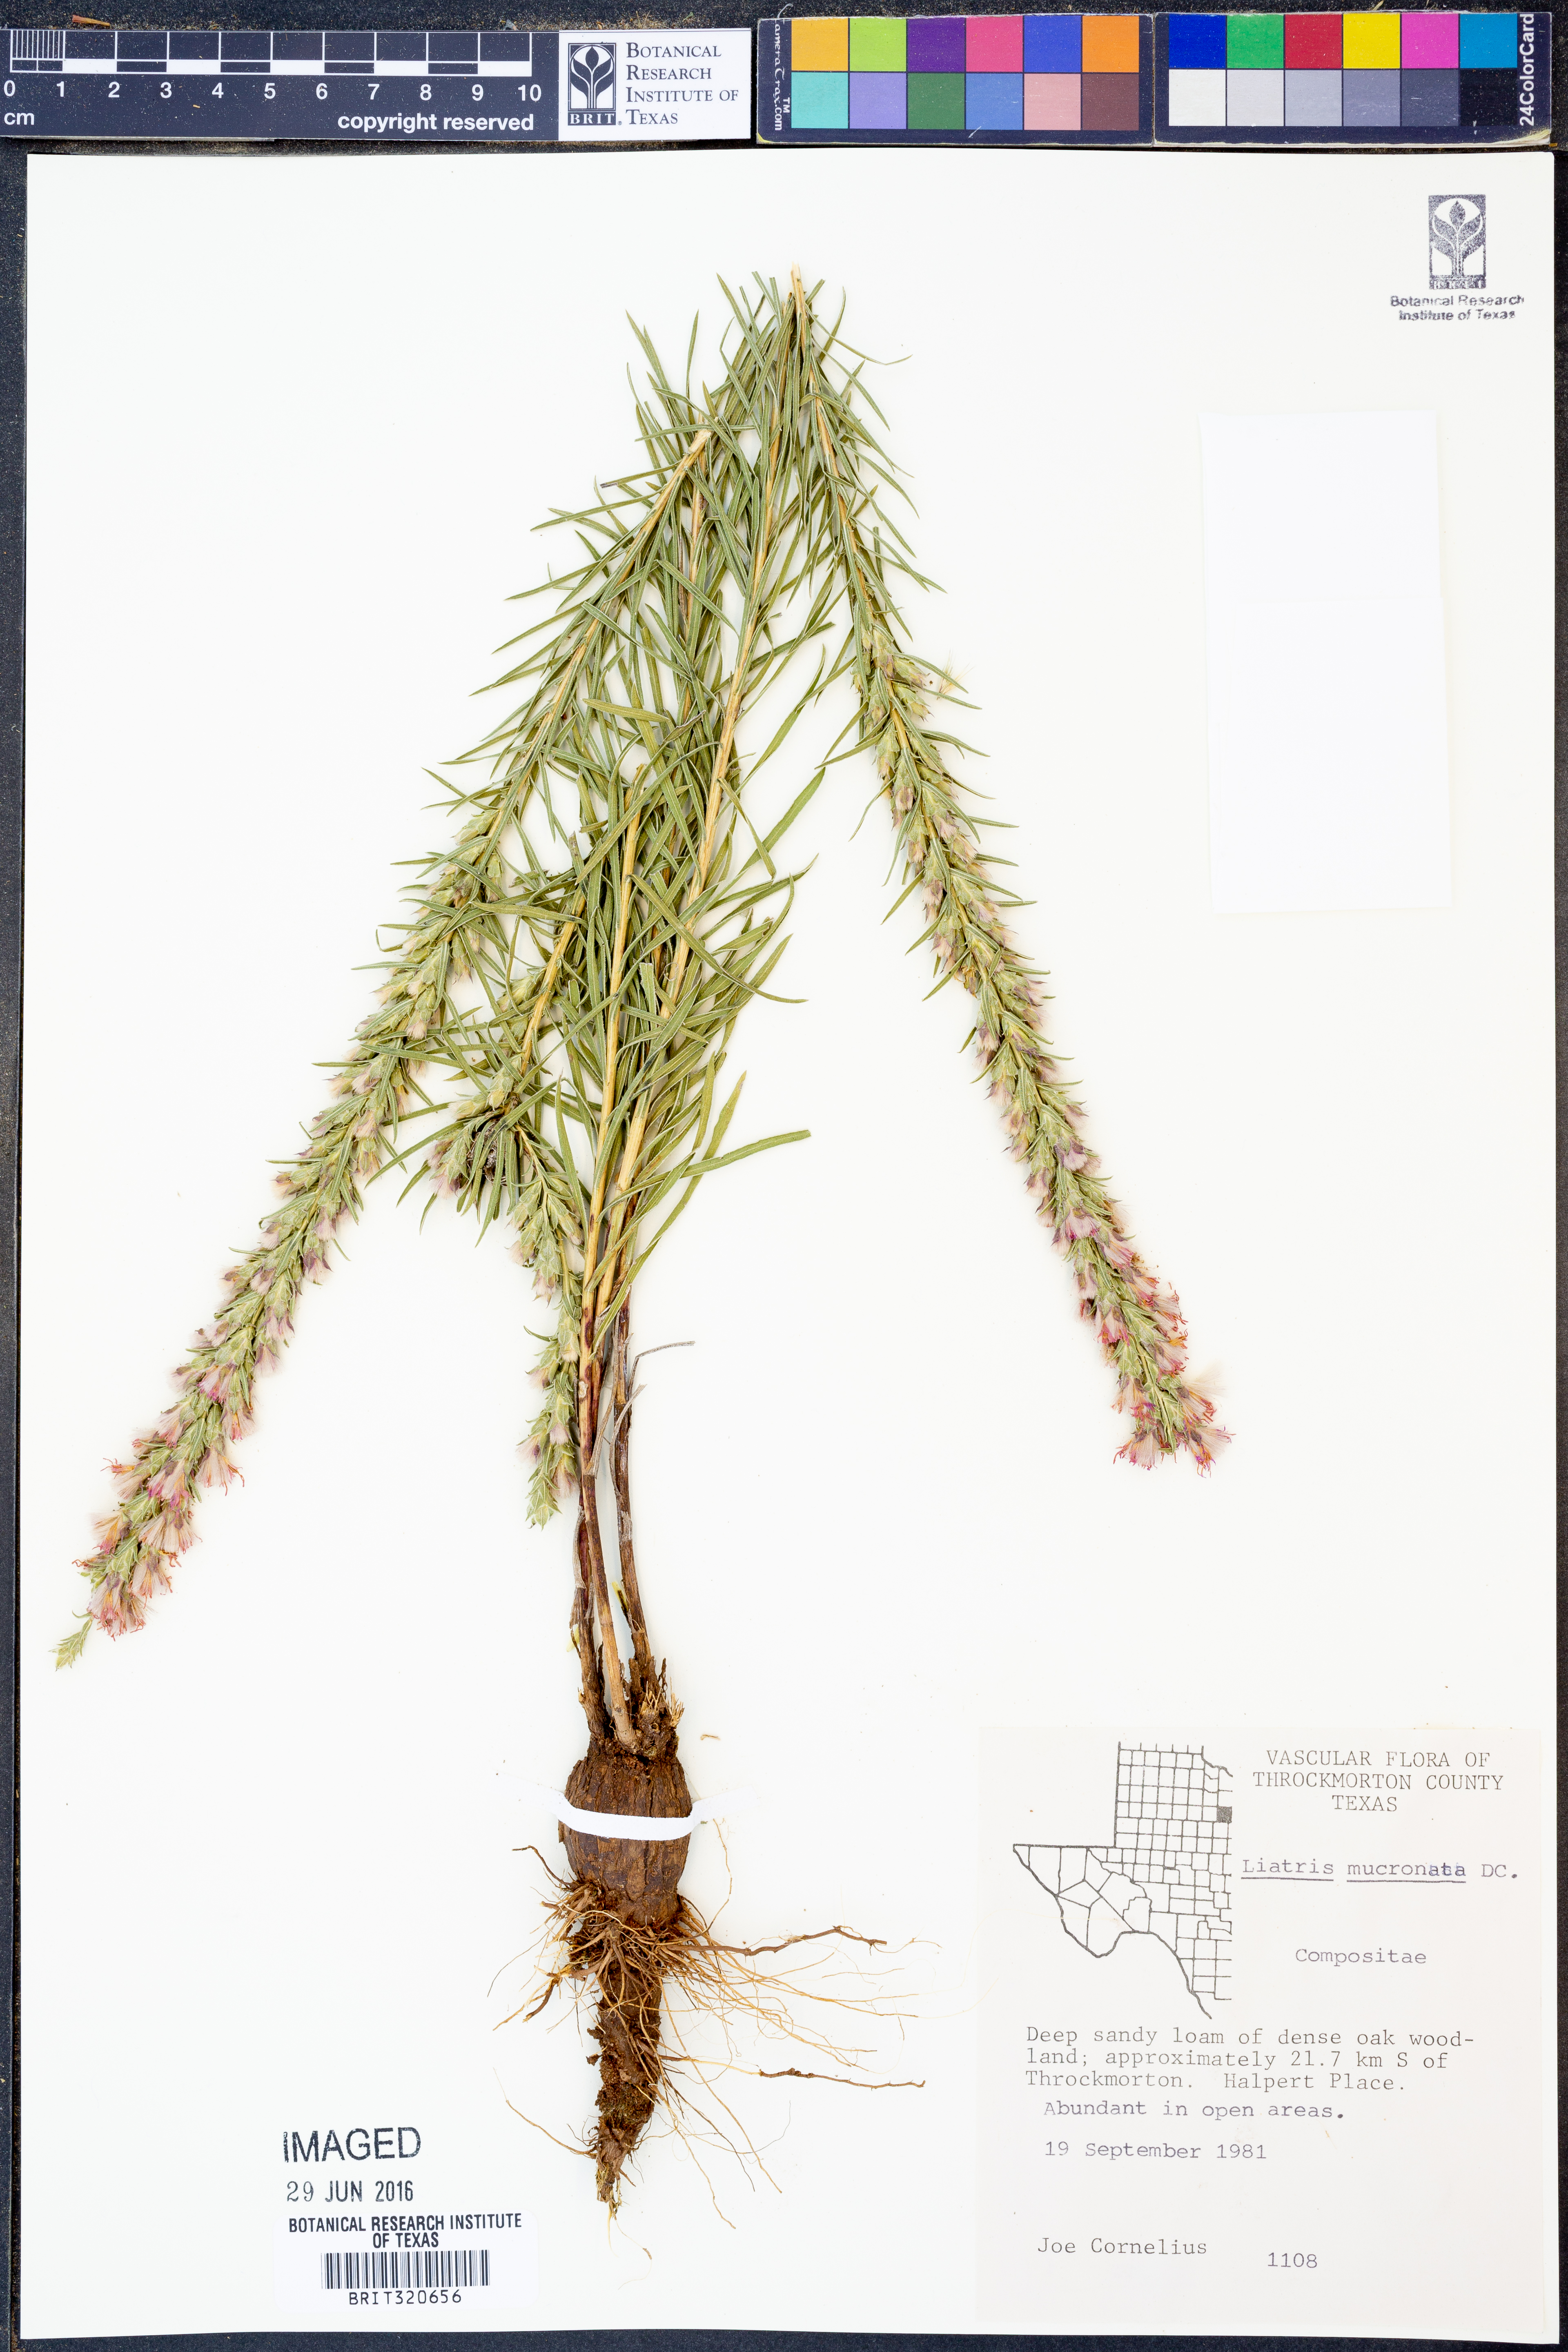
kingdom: Plantae
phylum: Tracheophyta
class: Magnoliopsida
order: Asterales
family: Asteraceae
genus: Liatris
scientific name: Liatris mucronata
